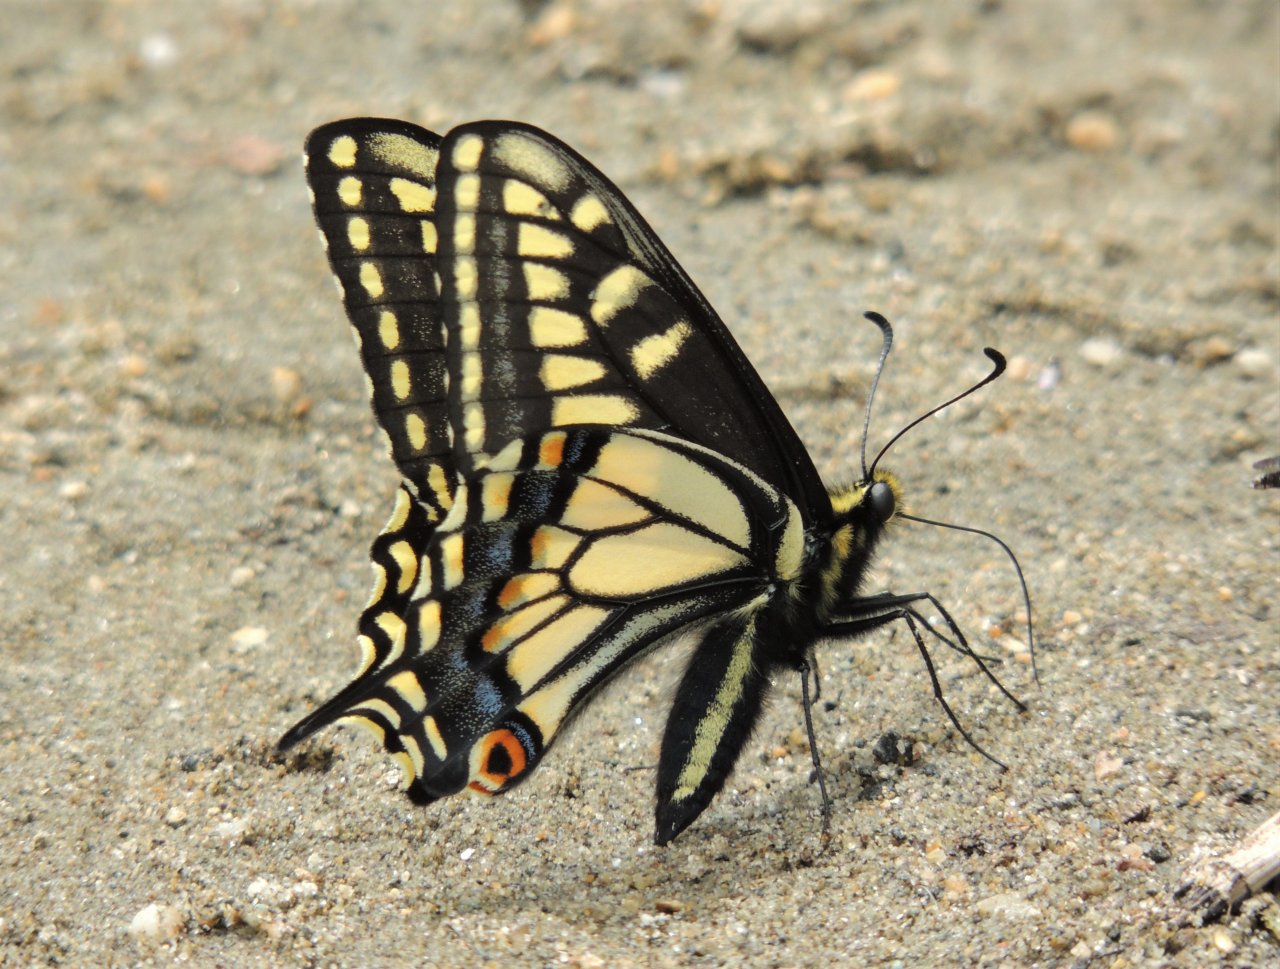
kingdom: Animalia
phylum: Arthropoda
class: Insecta
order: Lepidoptera
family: Papilionidae
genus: Papilio
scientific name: Papilio zelicaon
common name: Anise Swallowtail
